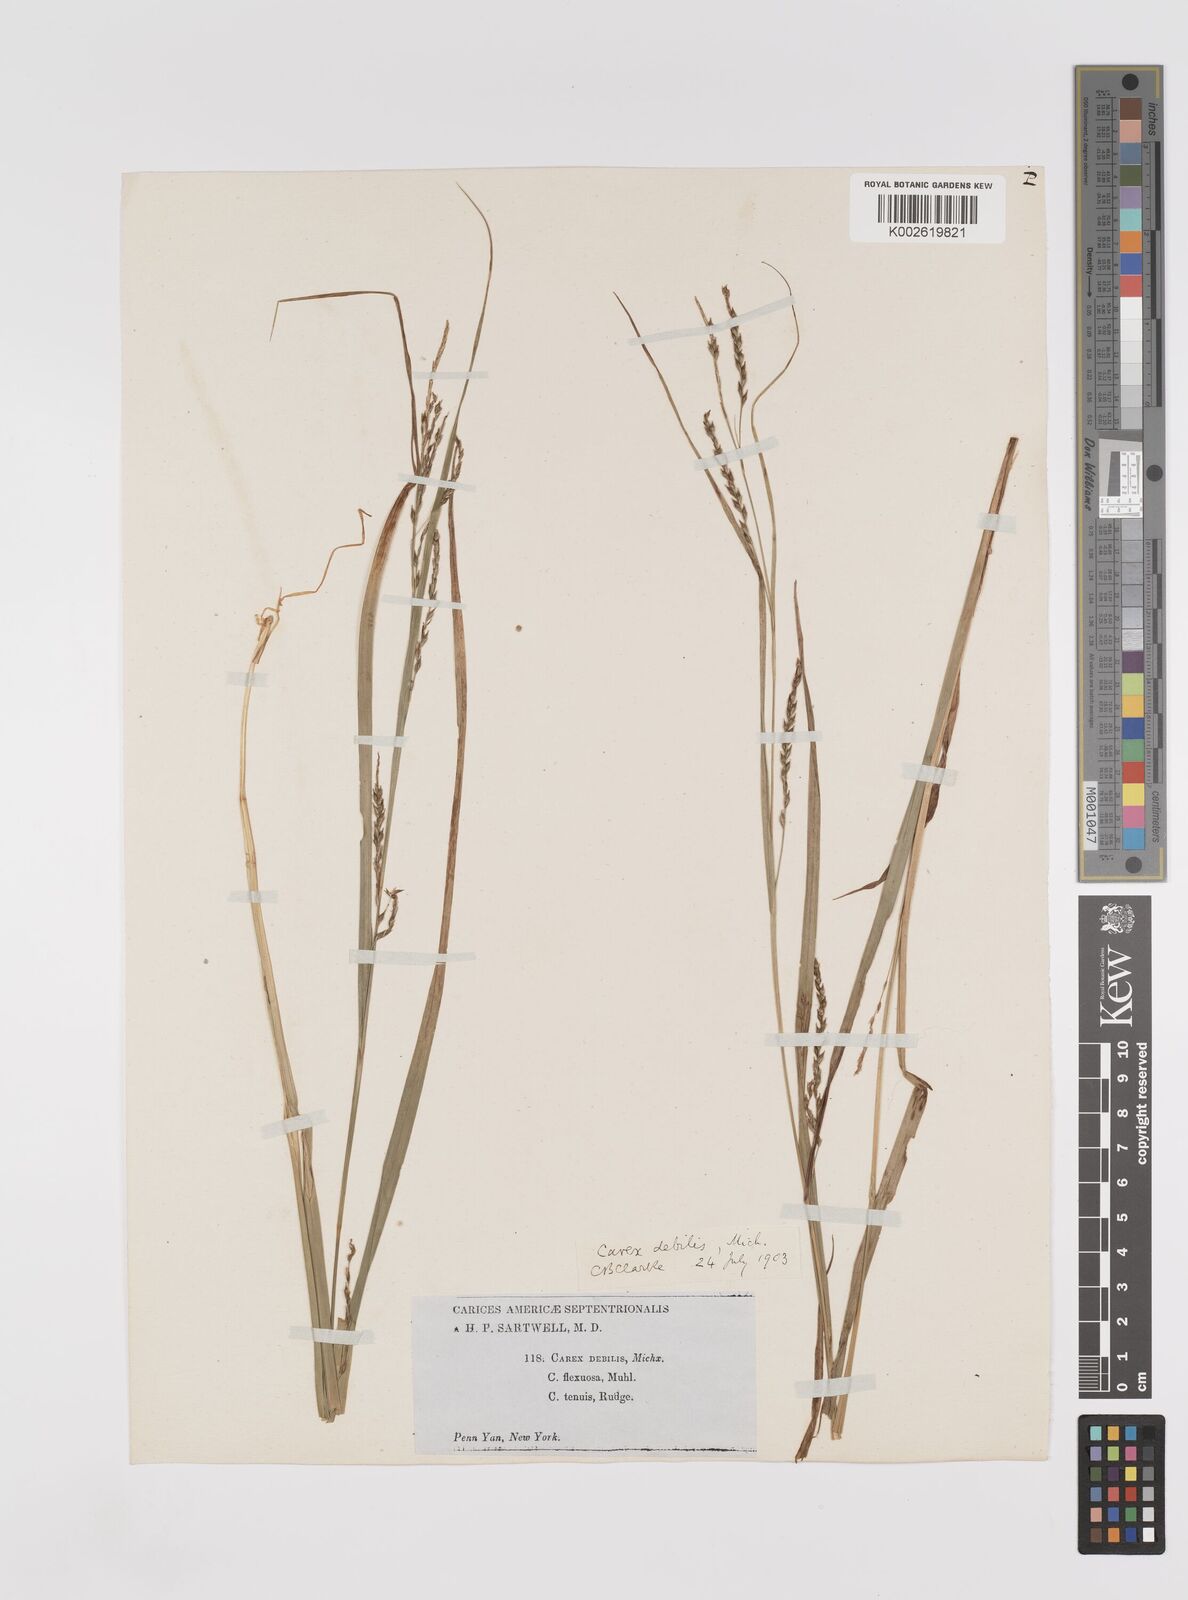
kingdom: Plantae
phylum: Tracheophyta
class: Liliopsida
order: Poales
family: Cyperaceae
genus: Carex
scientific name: Carex debilis
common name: White-edge sedge
